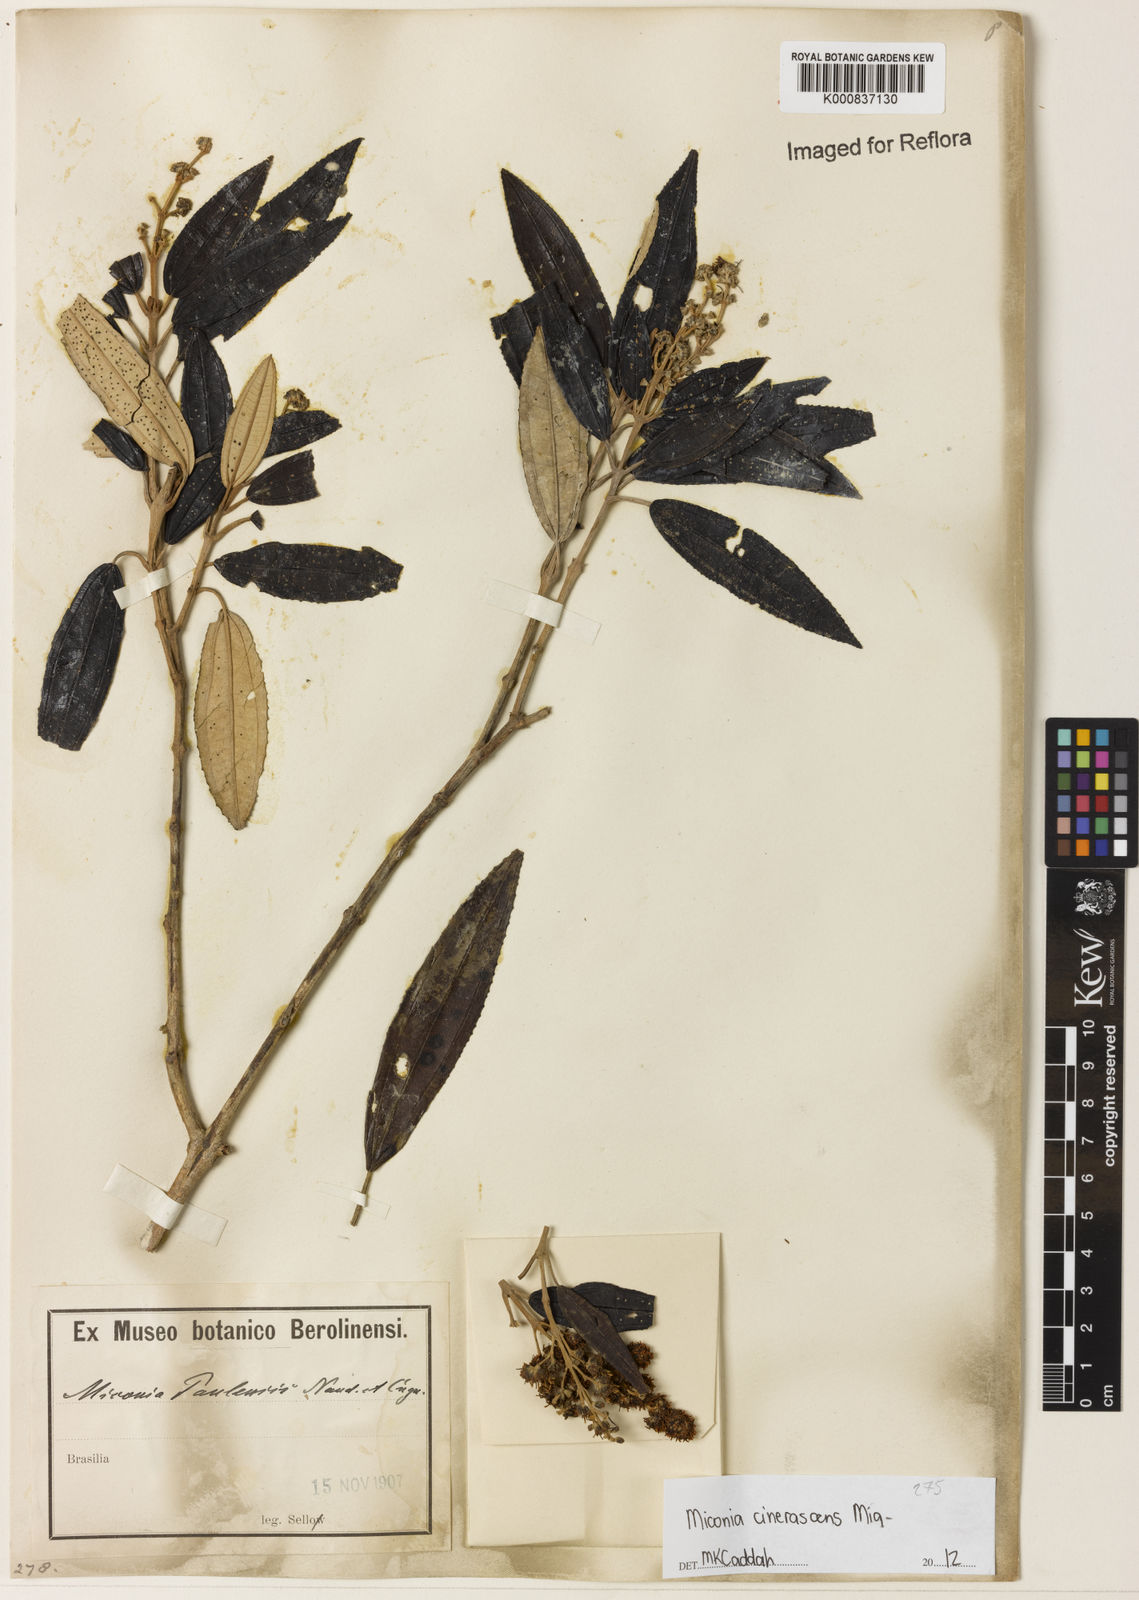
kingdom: Plantae
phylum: Tracheophyta
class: Magnoliopsida
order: Myrtales
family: Melastomataceae
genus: Miconia
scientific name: Miconia cinerascens
